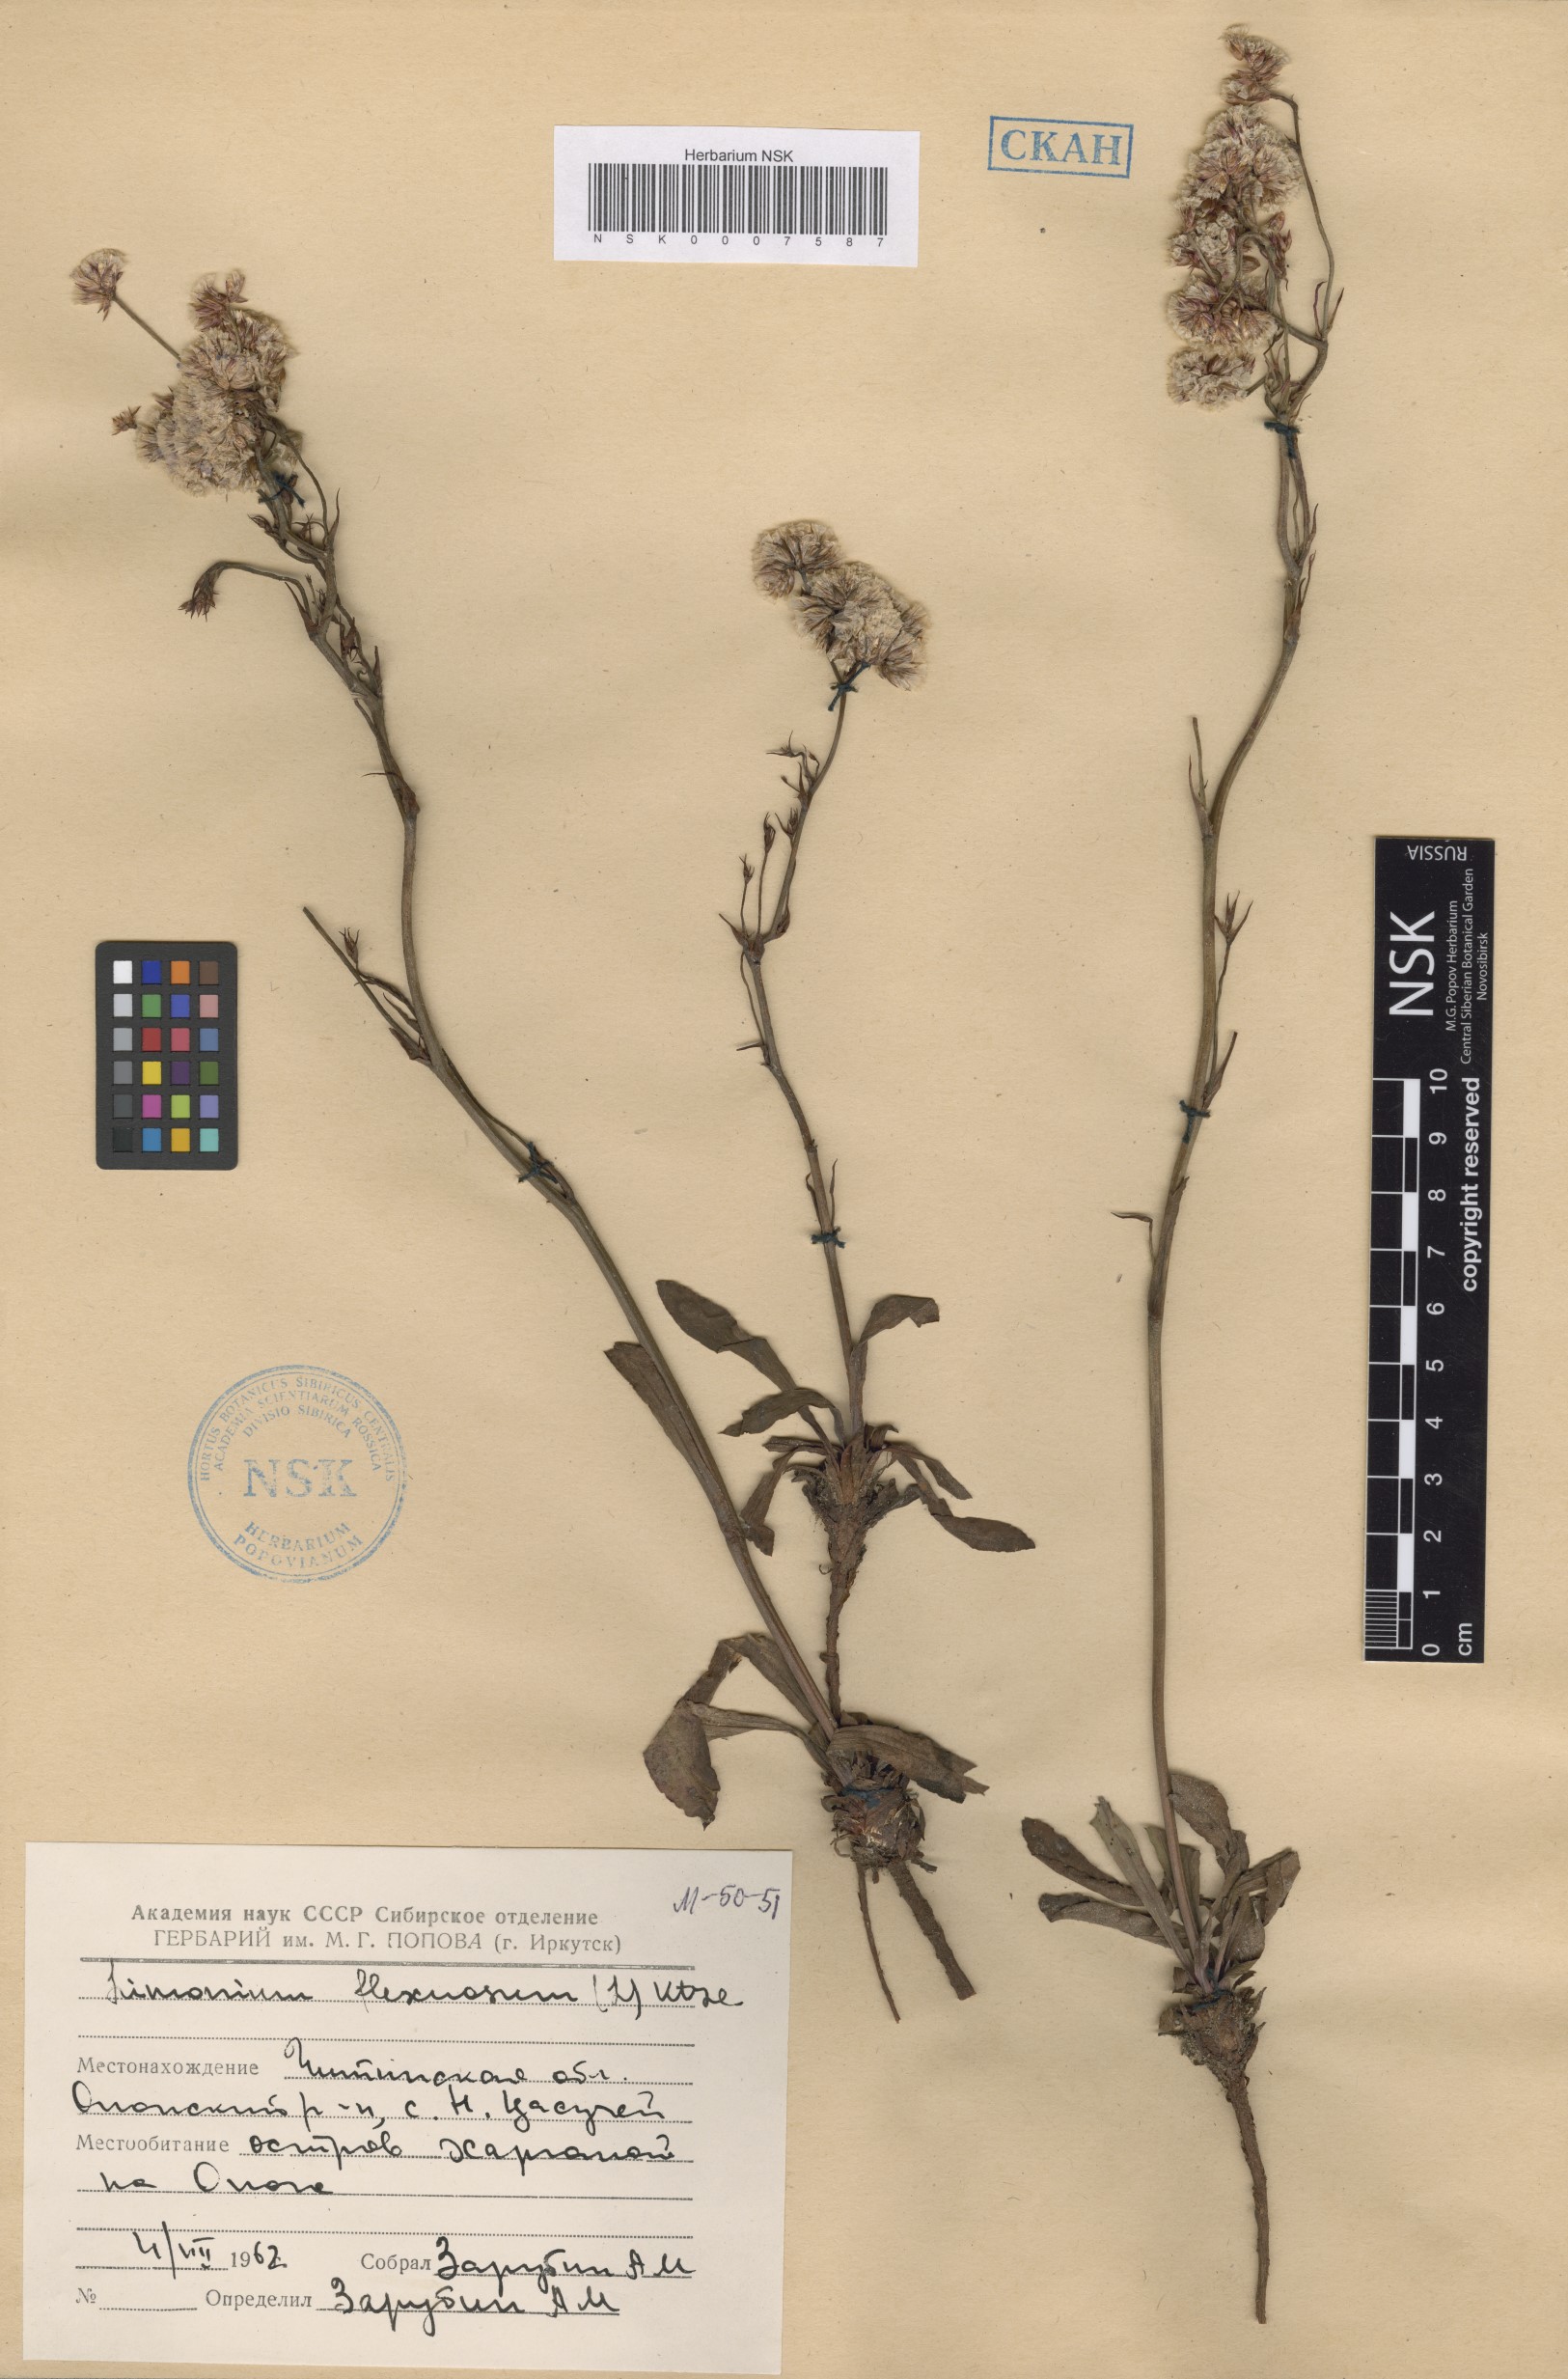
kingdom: Plantae
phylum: Tracheophyta
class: Magnoliopsida
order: Caryophyllales
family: Plumbaginaceae
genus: Limonium
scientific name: Limonium flexuosum
